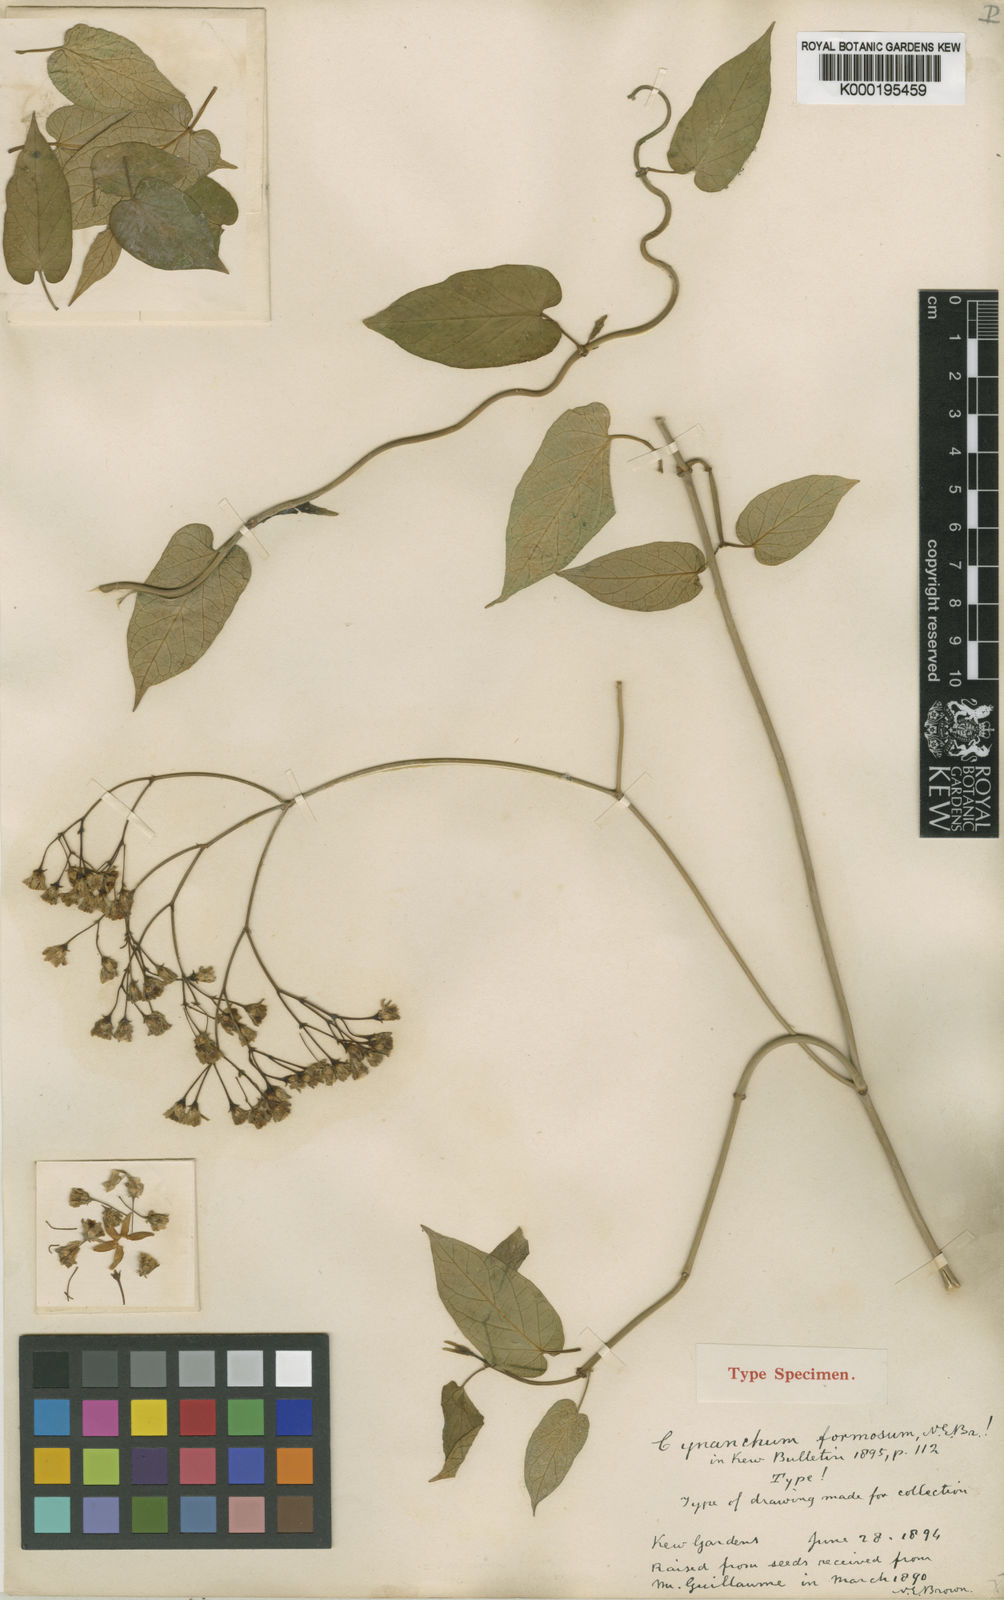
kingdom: Plantae
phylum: Tracheophyta
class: Magnoliopsida
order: Gentianales
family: Apocynaceae
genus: Jobinia
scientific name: Jobinia formosa
